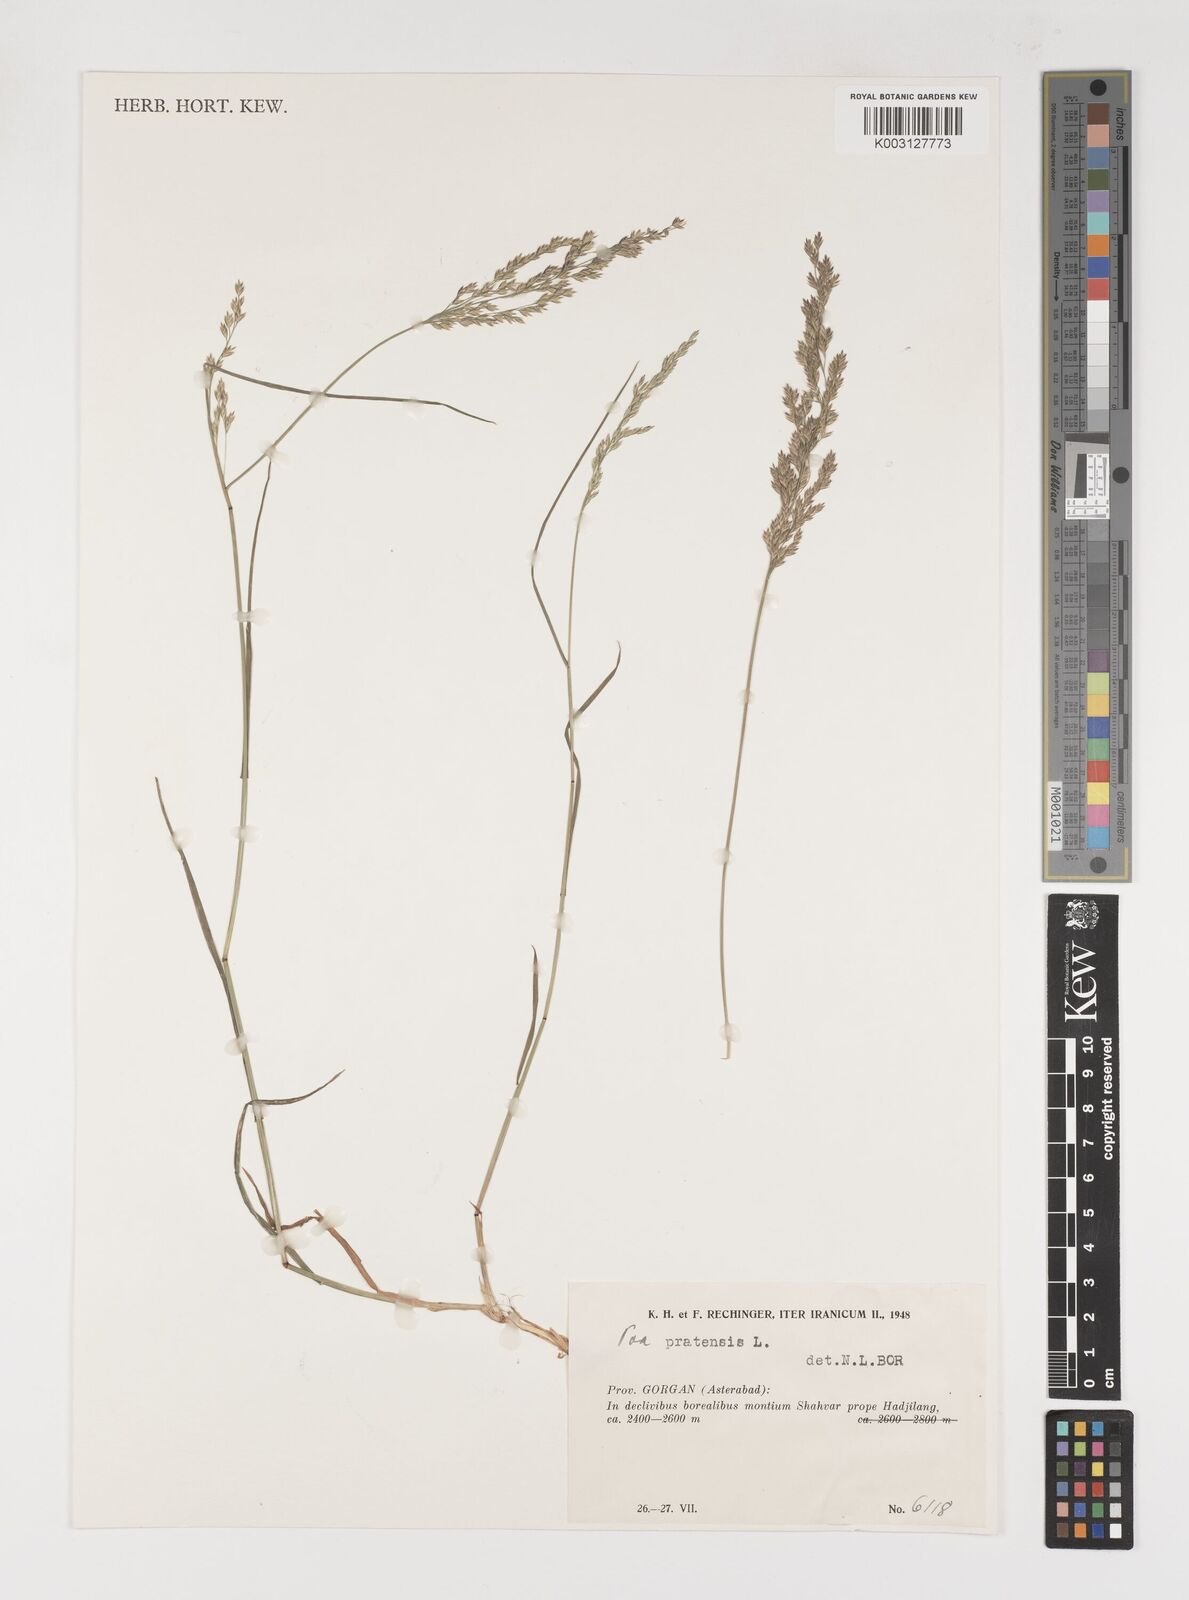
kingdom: Plantae
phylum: Tracheophyta
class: Liliopsida
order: Poales
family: Poaceae
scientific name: Poaceae
